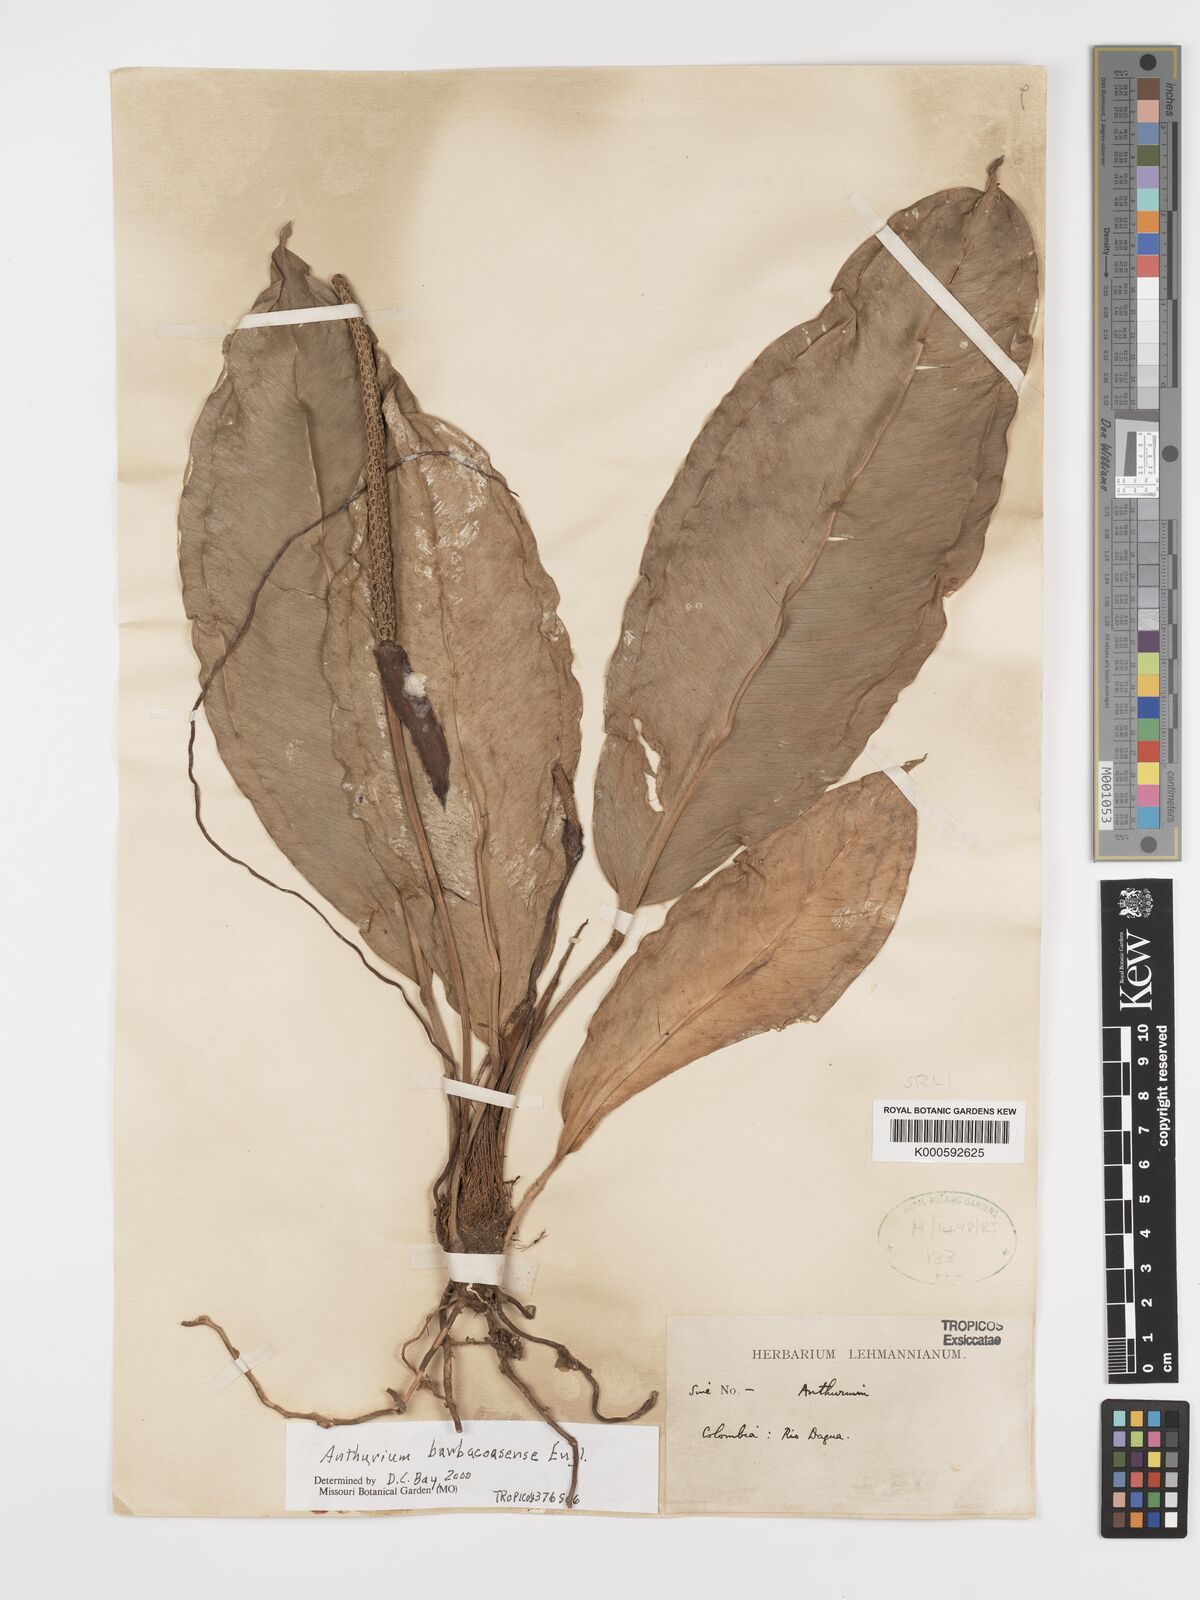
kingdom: Plantae
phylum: Tracheophyta
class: Liliopsida
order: Alismatales
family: Araceae
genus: Anthurium
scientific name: Anthurium willdenowii
